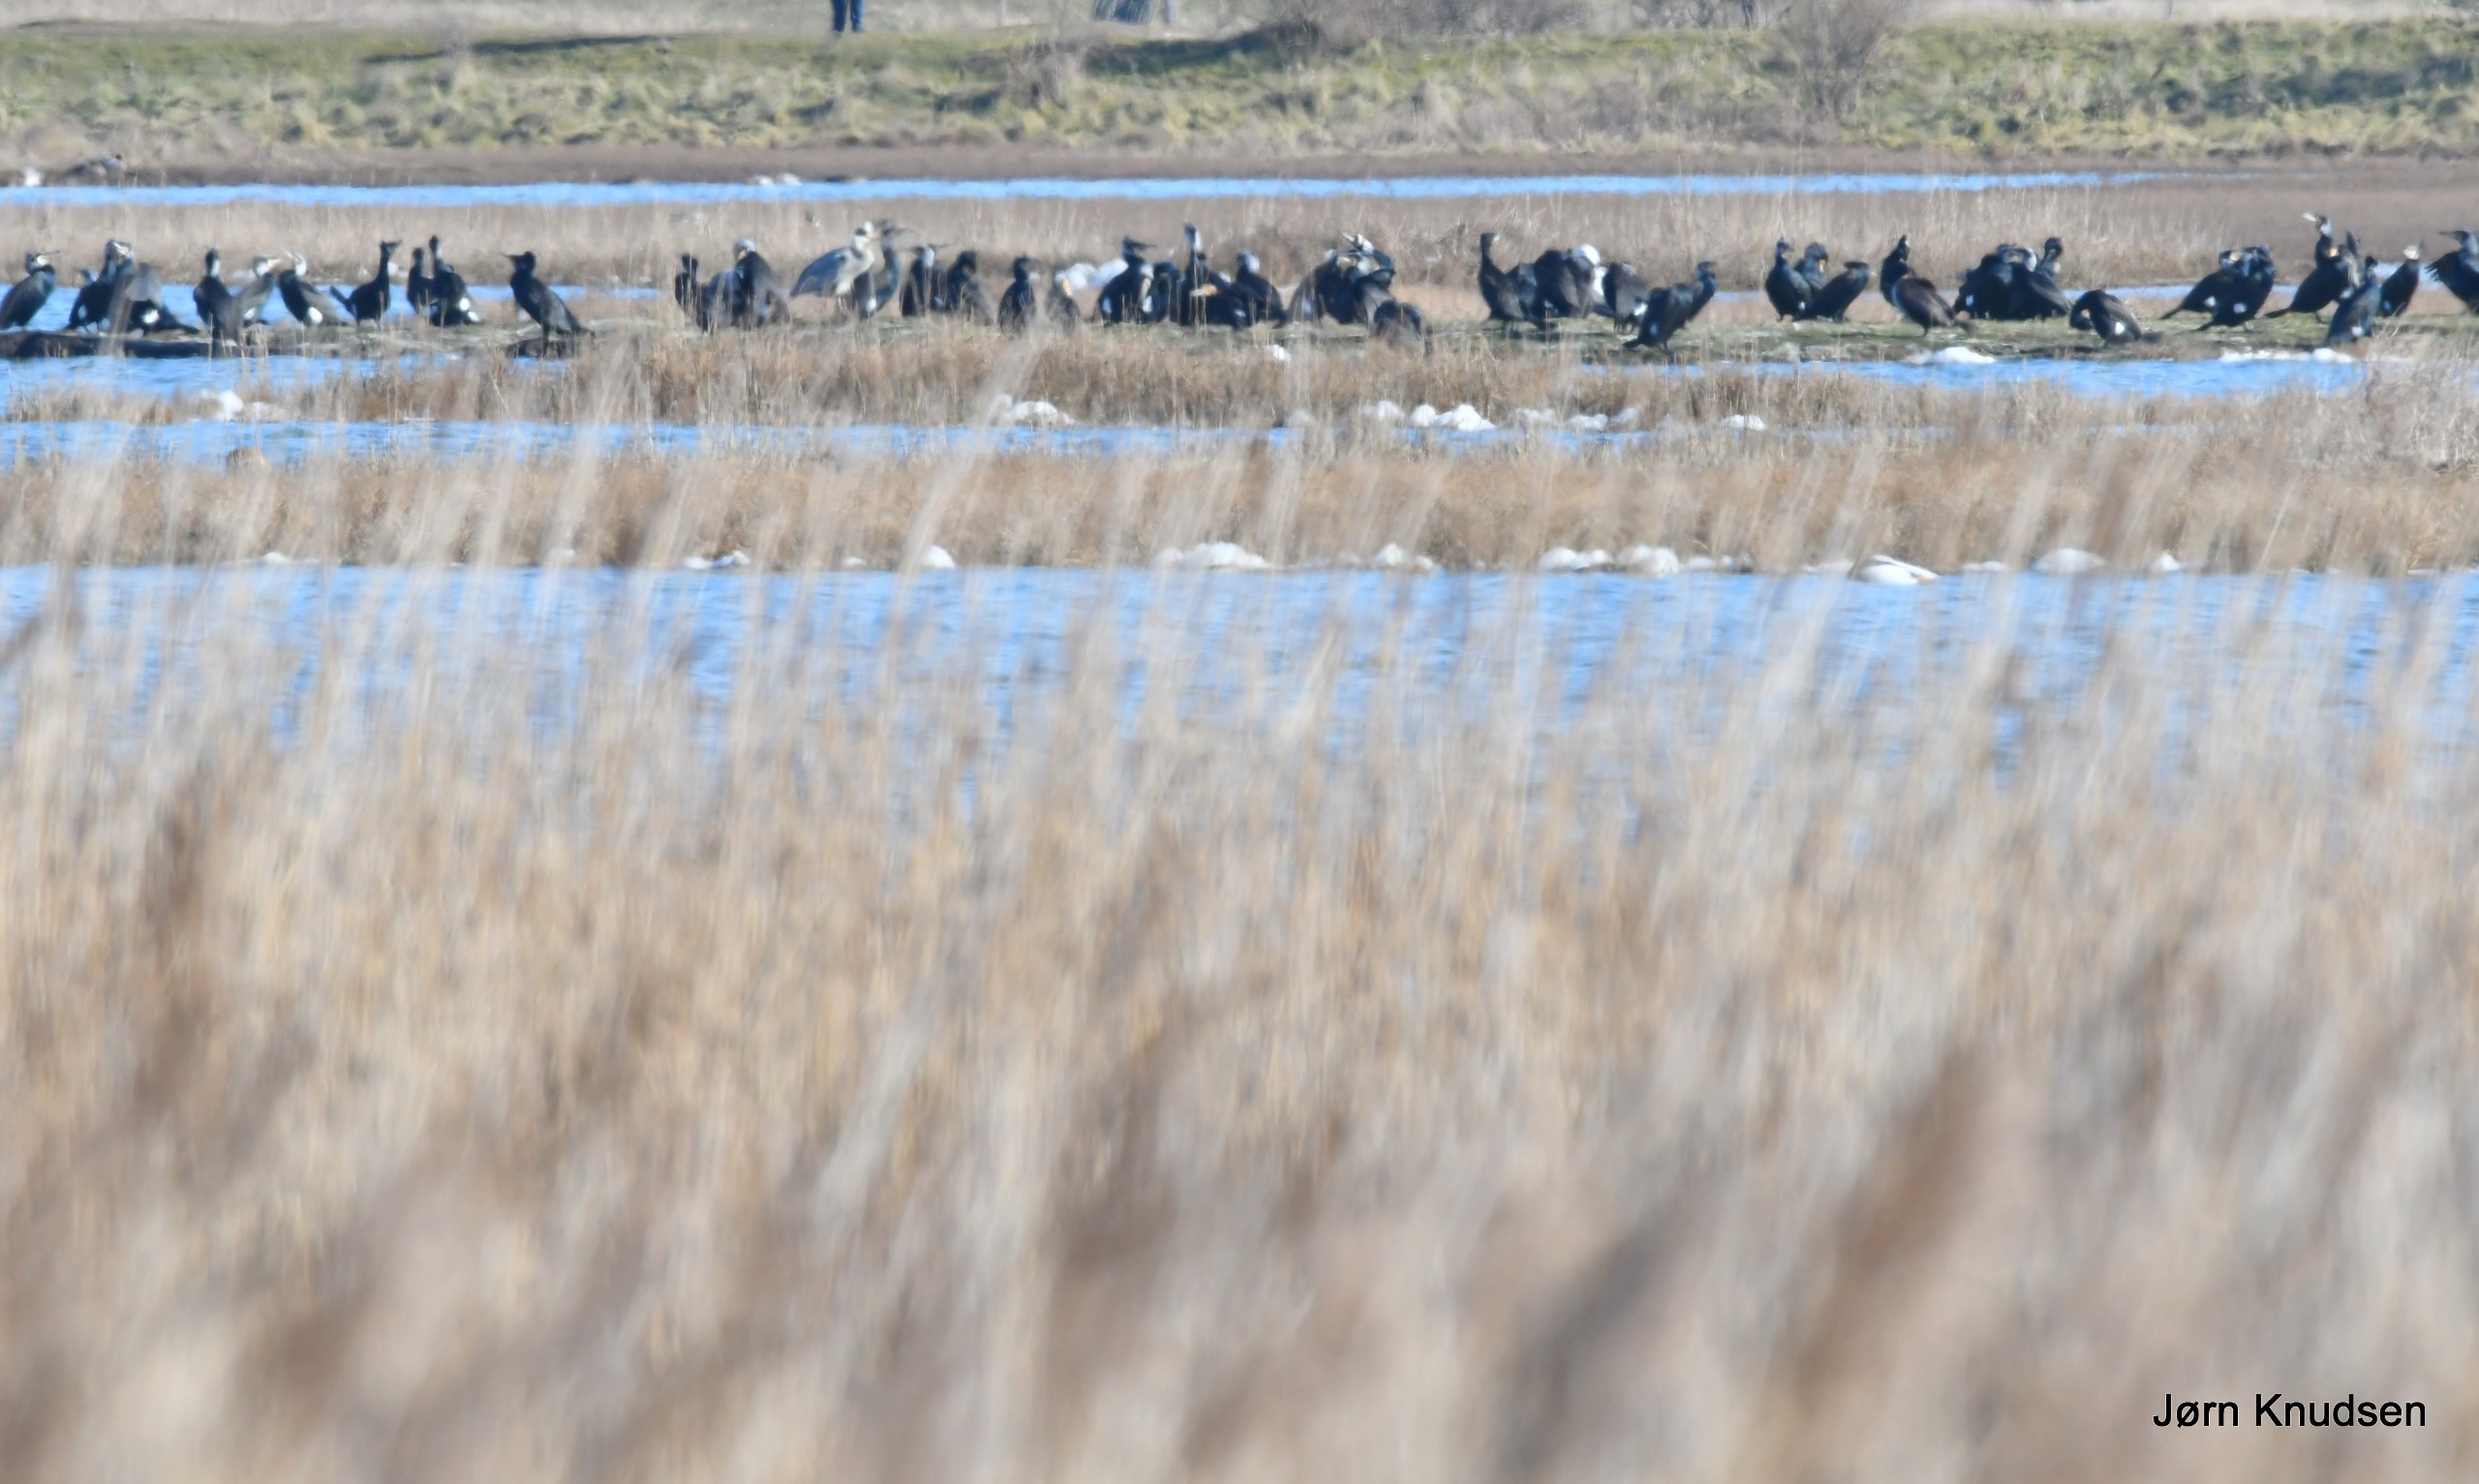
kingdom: Animalia
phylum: Chordata
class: Aves
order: Suliformes
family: Phalacrocoracidae
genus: Phalacrocorax
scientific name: Phalacrocorax carbo
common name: Skarv
